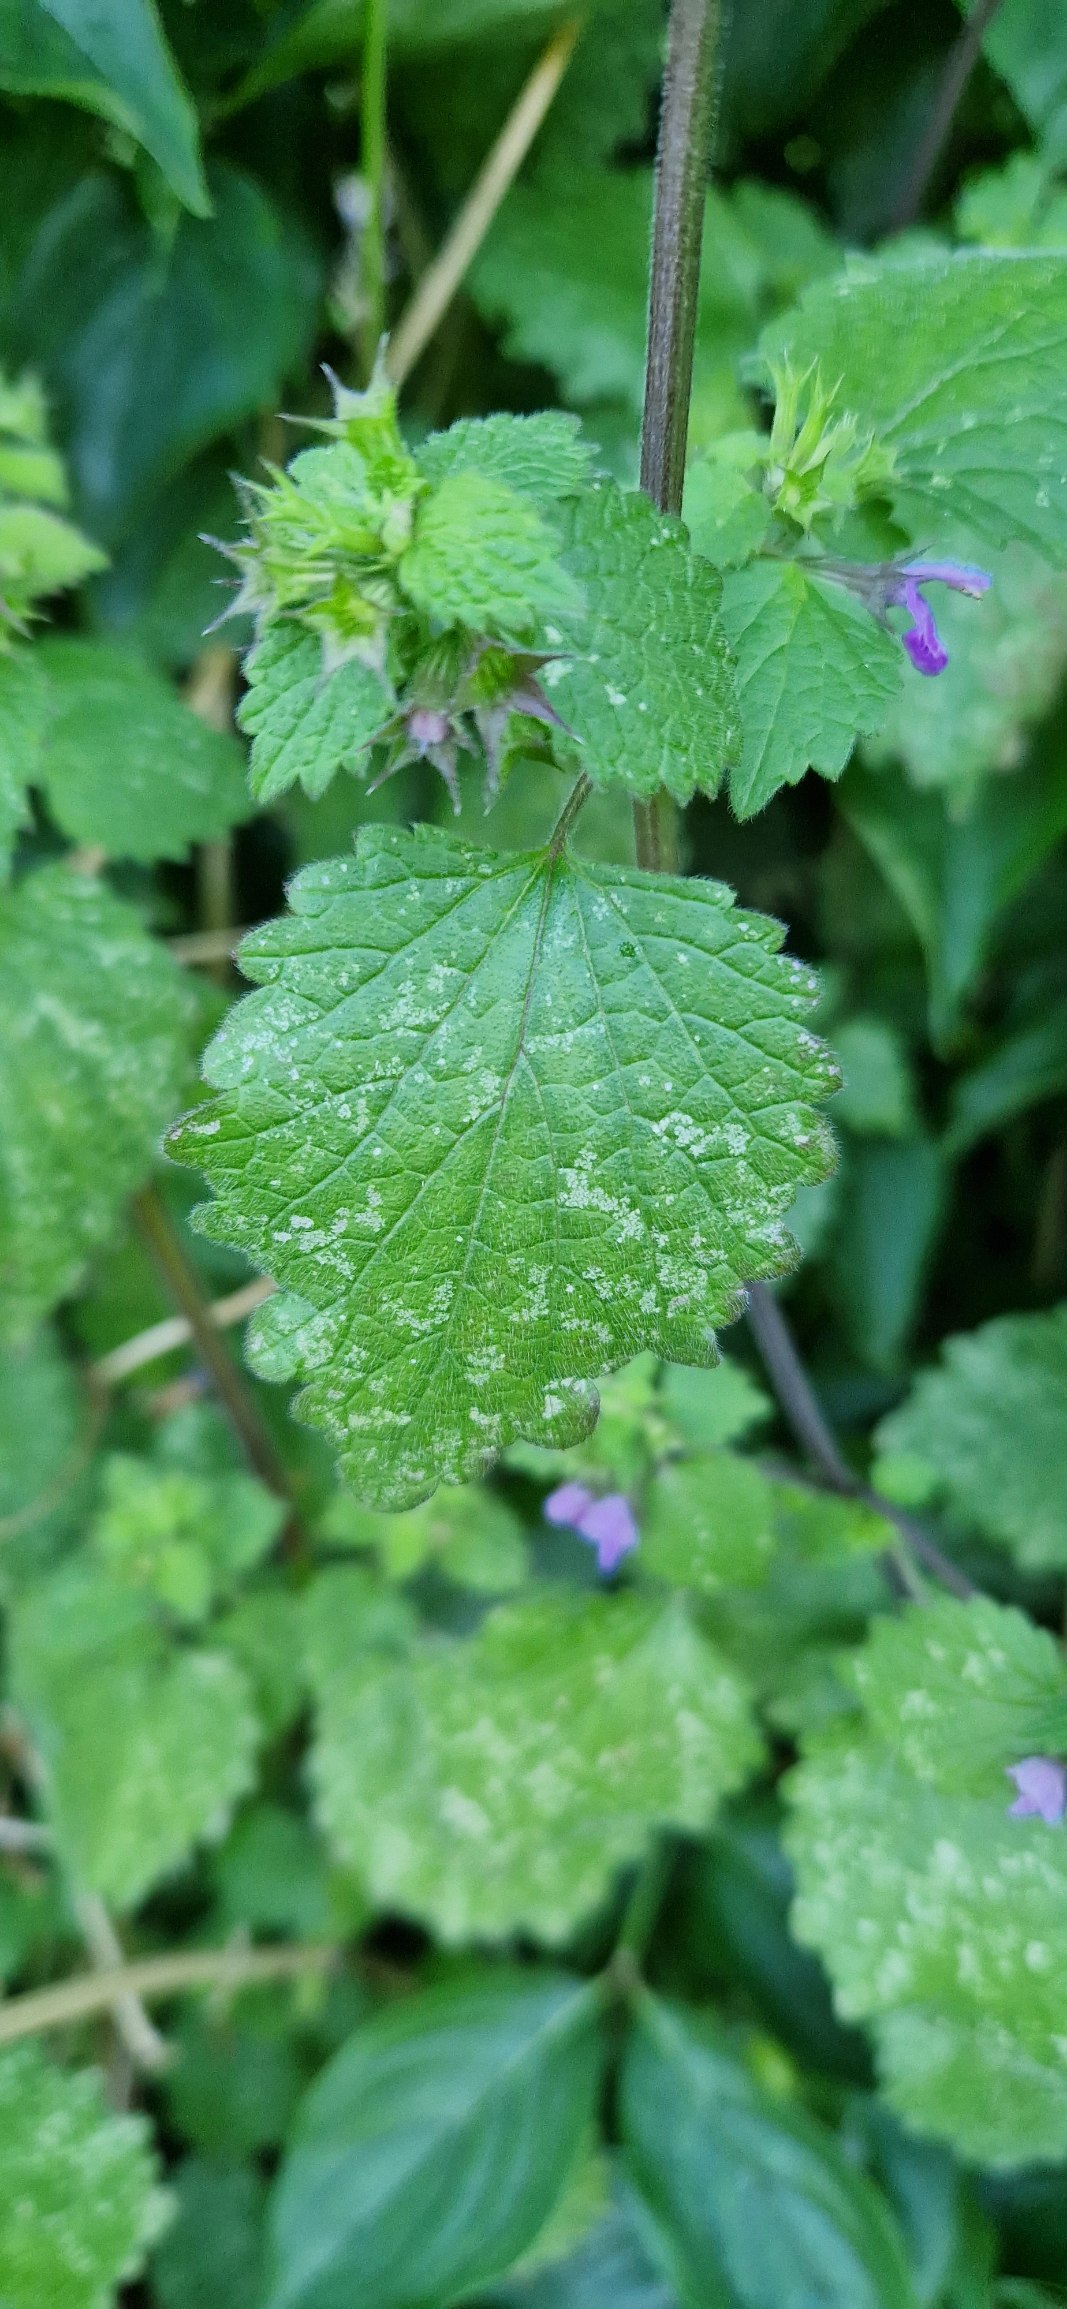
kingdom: Plantae
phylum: Tracheophyta
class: Magnoliopsida
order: Lamiales
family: Lamiaceae
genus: Ballota
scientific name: Ballota nigra
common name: Rød tandbæger
